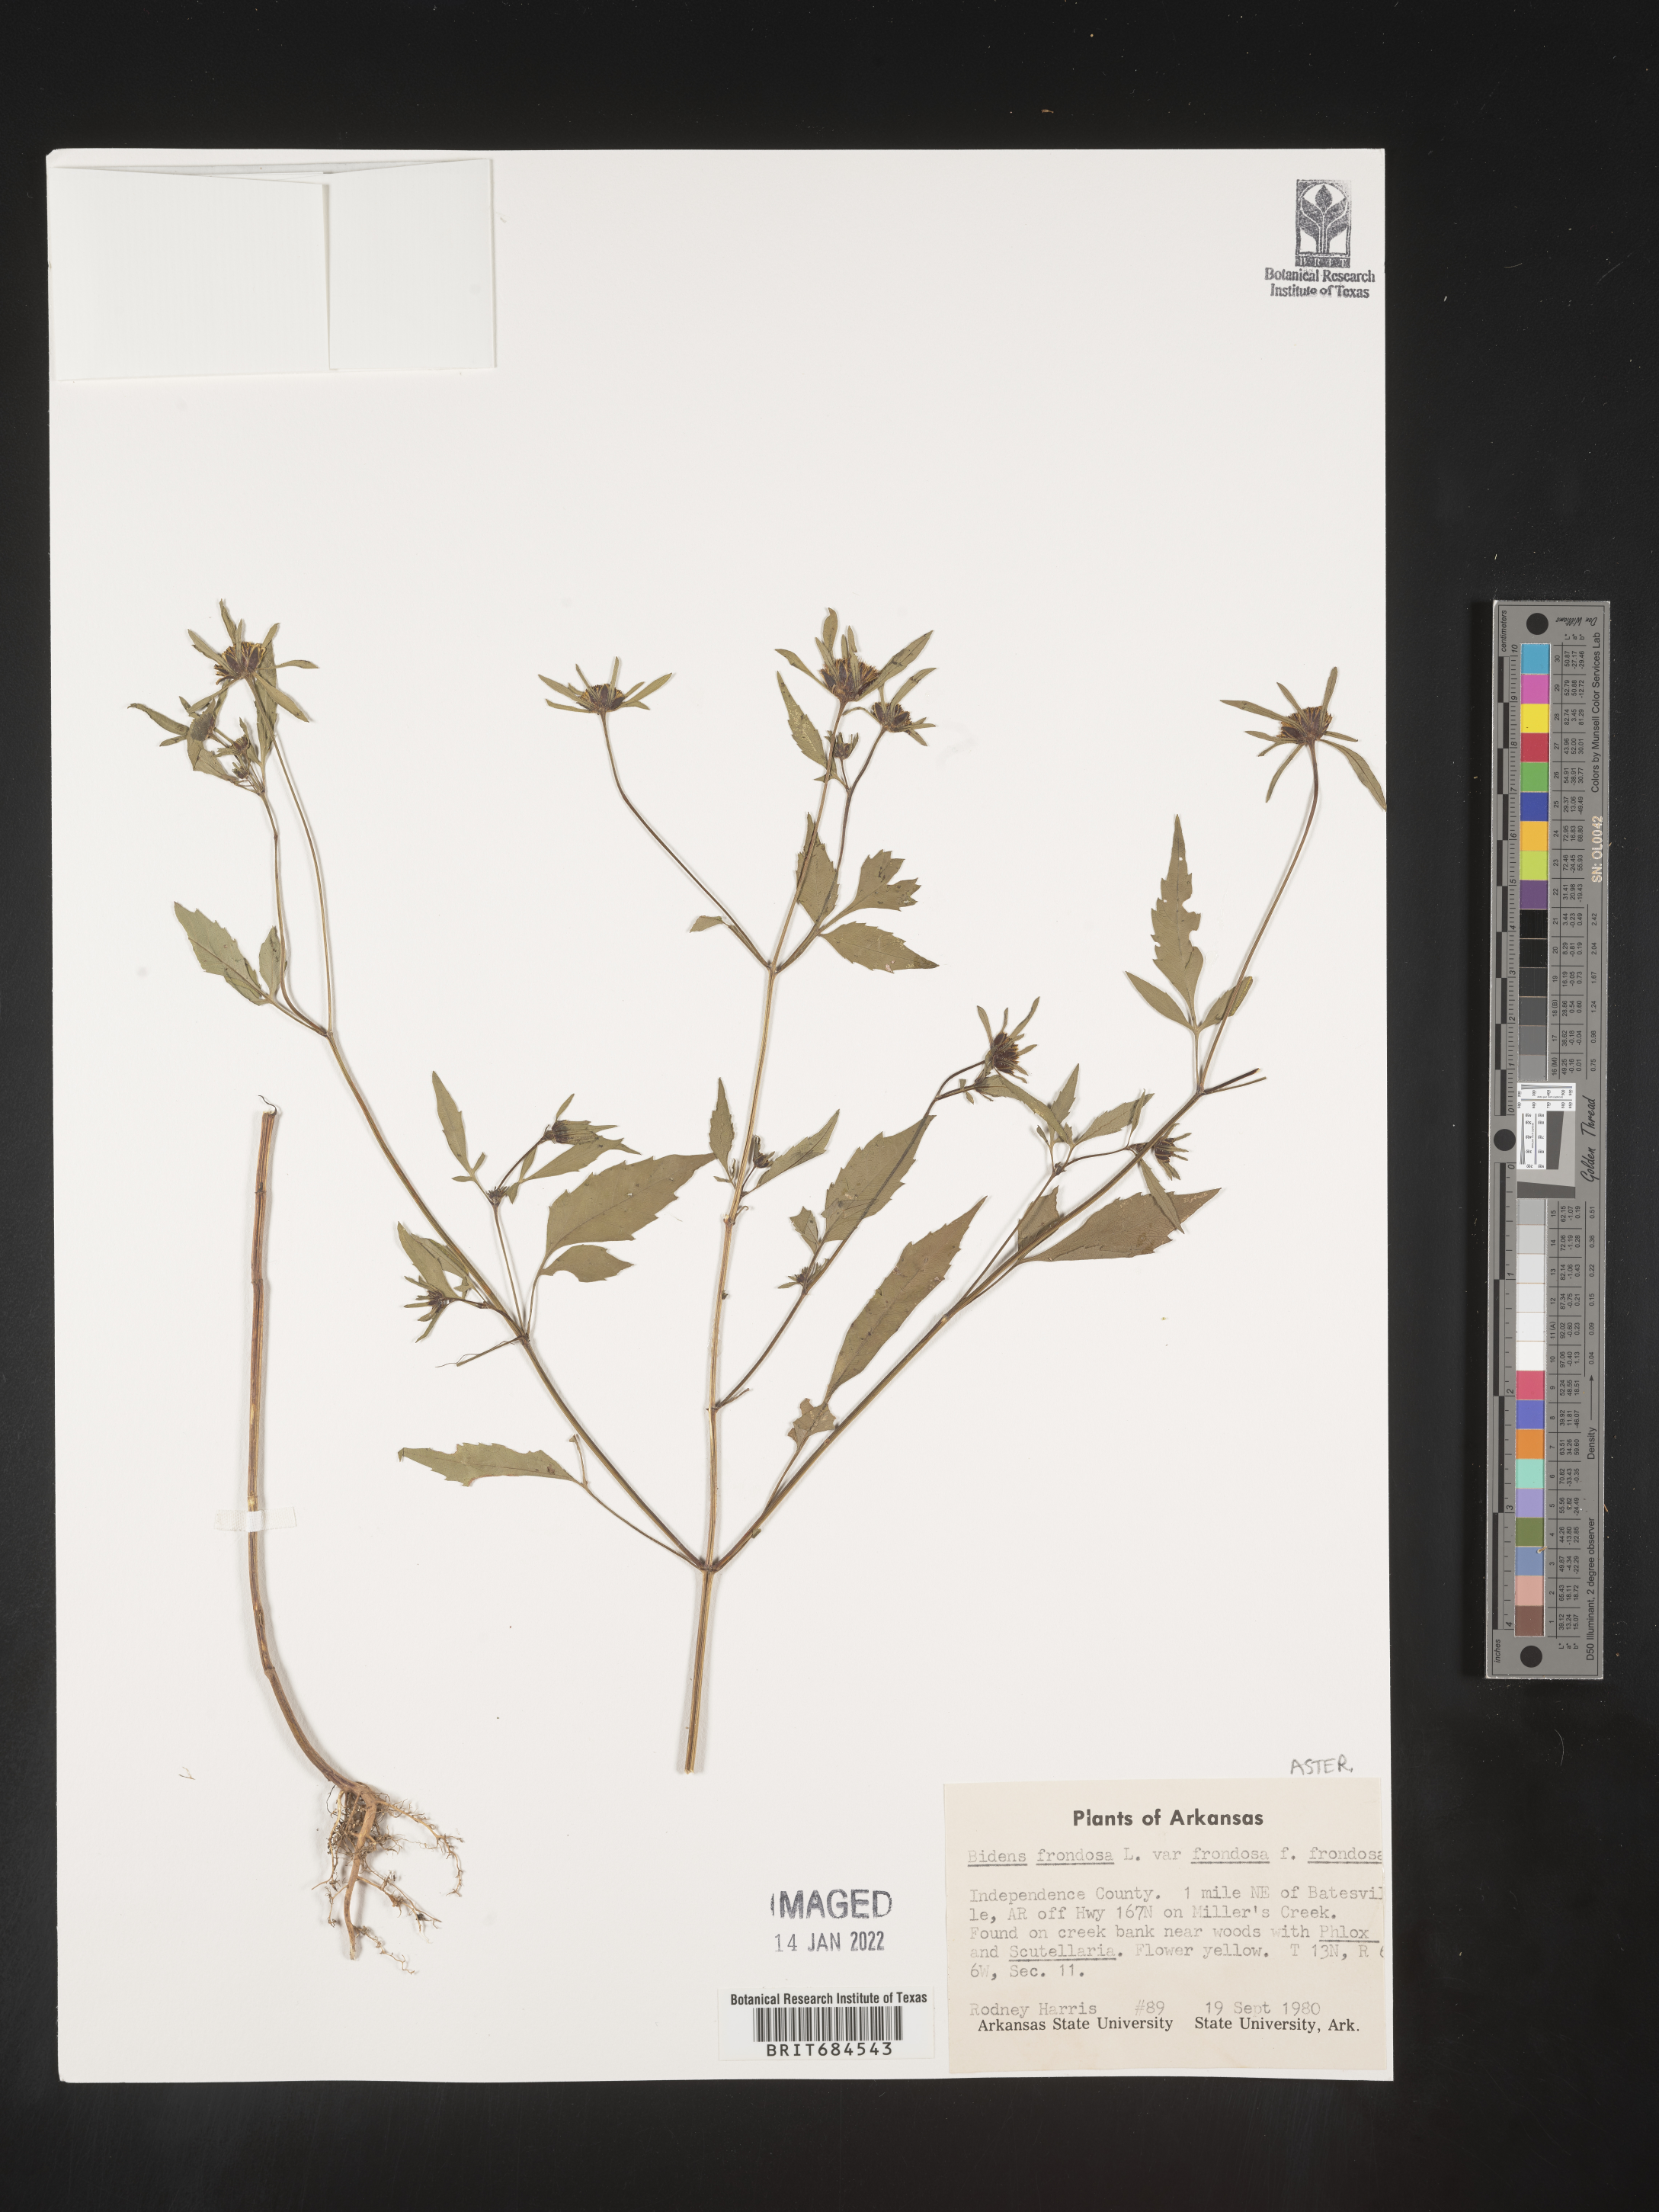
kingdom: Plantae
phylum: Tracheophyta
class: Magnoliopsida
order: Asterales
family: Asteraceae
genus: Bidens
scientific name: Bidens frondosa
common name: Beggarticks
